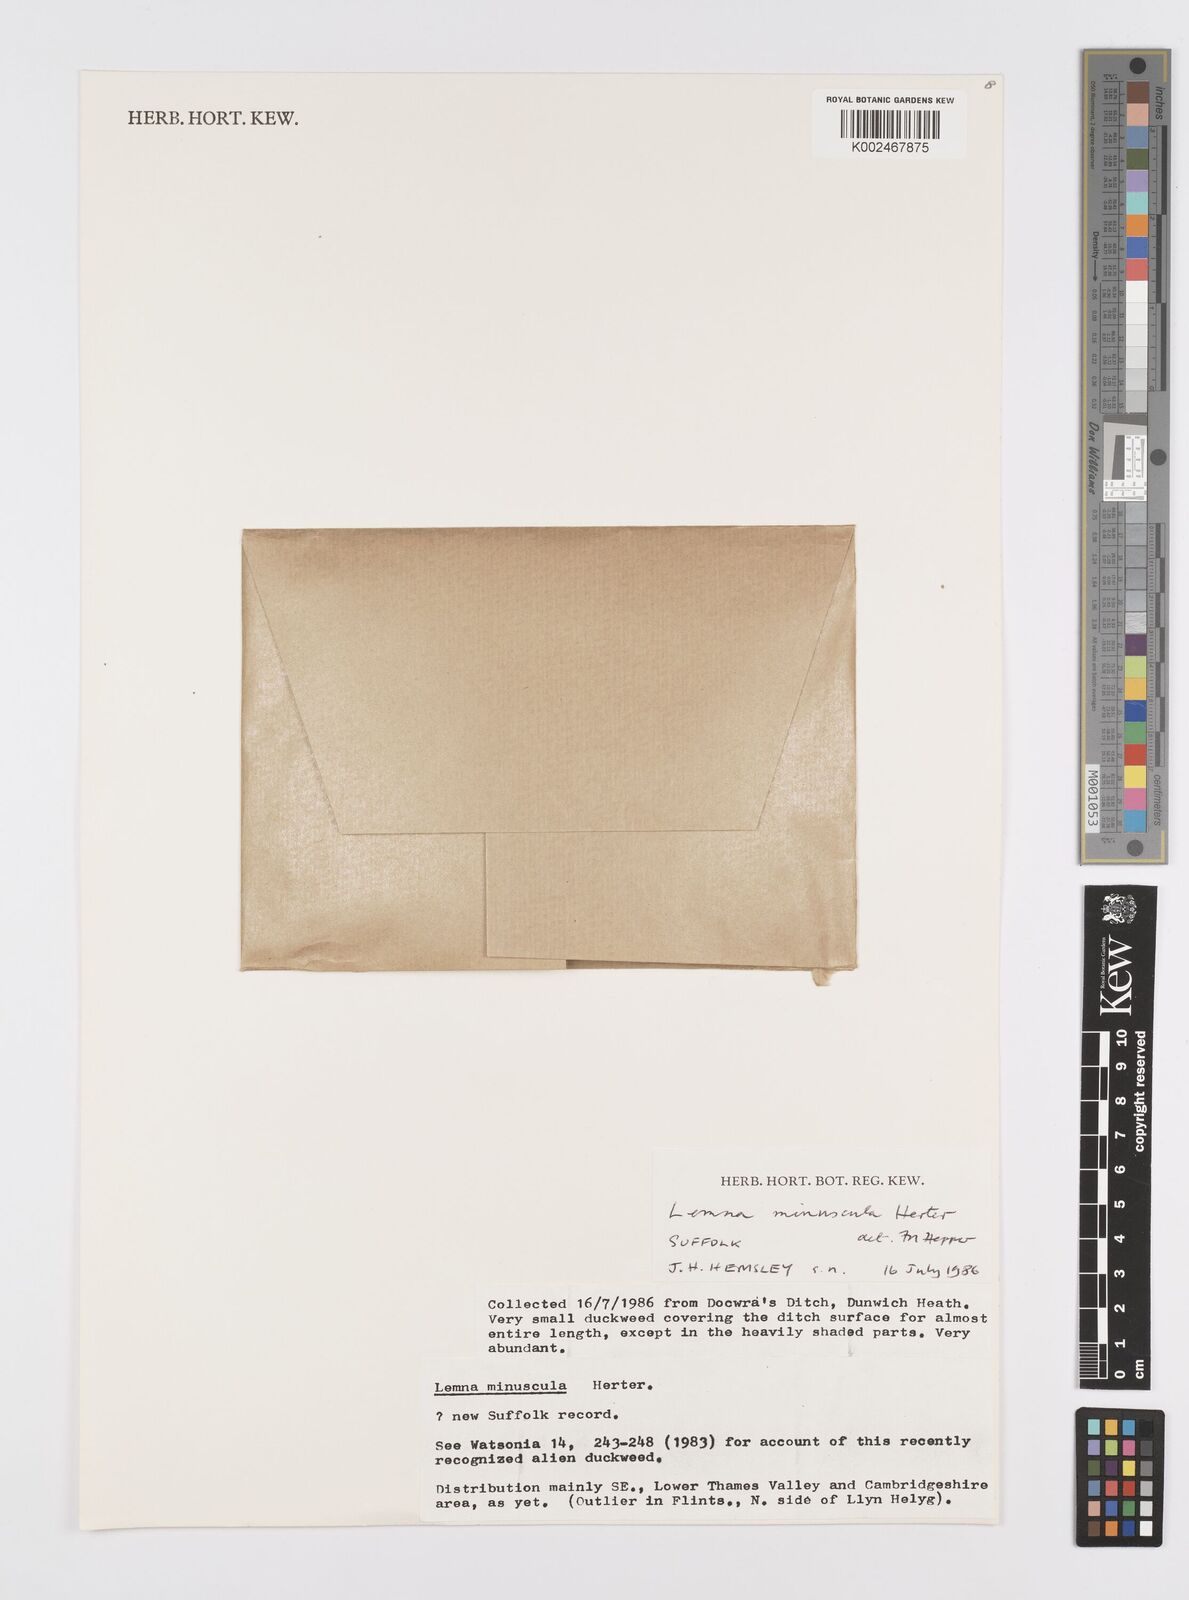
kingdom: Plantae
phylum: Tracheophyta
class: Liliopsida
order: Alismatales
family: Araceae
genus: Lemna
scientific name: Lemna minuta
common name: Least duckweed
